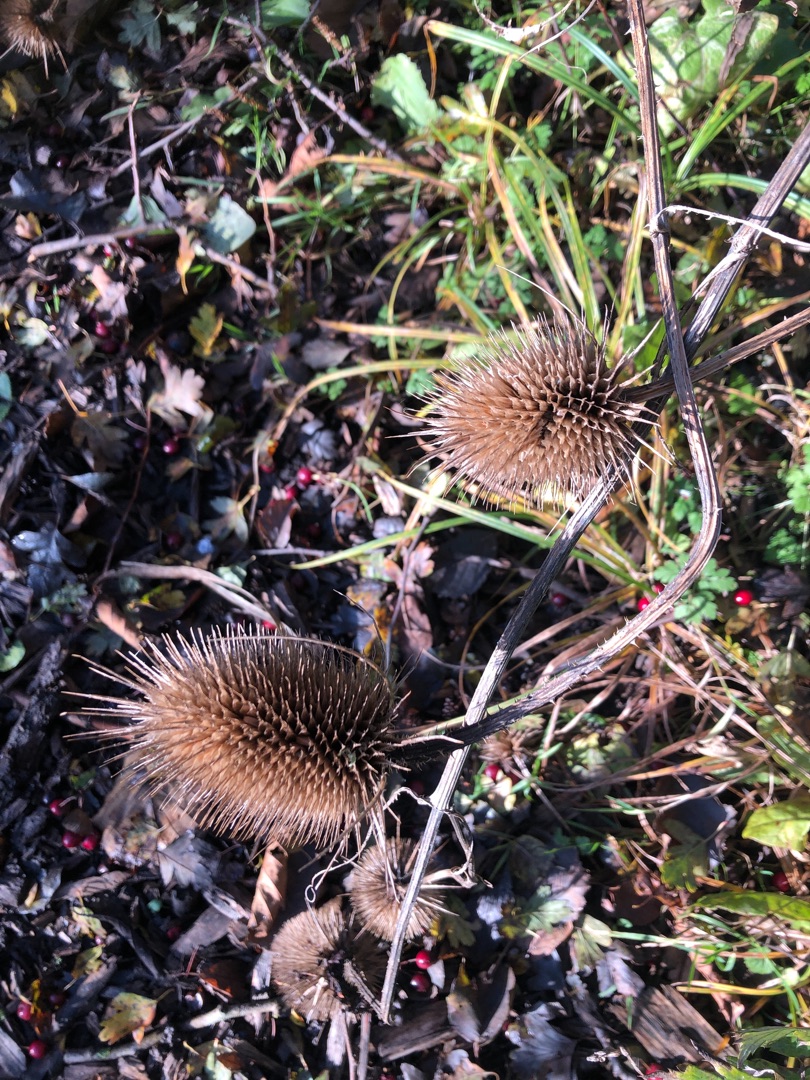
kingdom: Plantae
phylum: Tracheophyta
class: Magnoliopsida
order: Dipsacales
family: Caprifoliaceae
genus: Dipsacus
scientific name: Dipsacus fullonum
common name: Gærde-kartebolle
